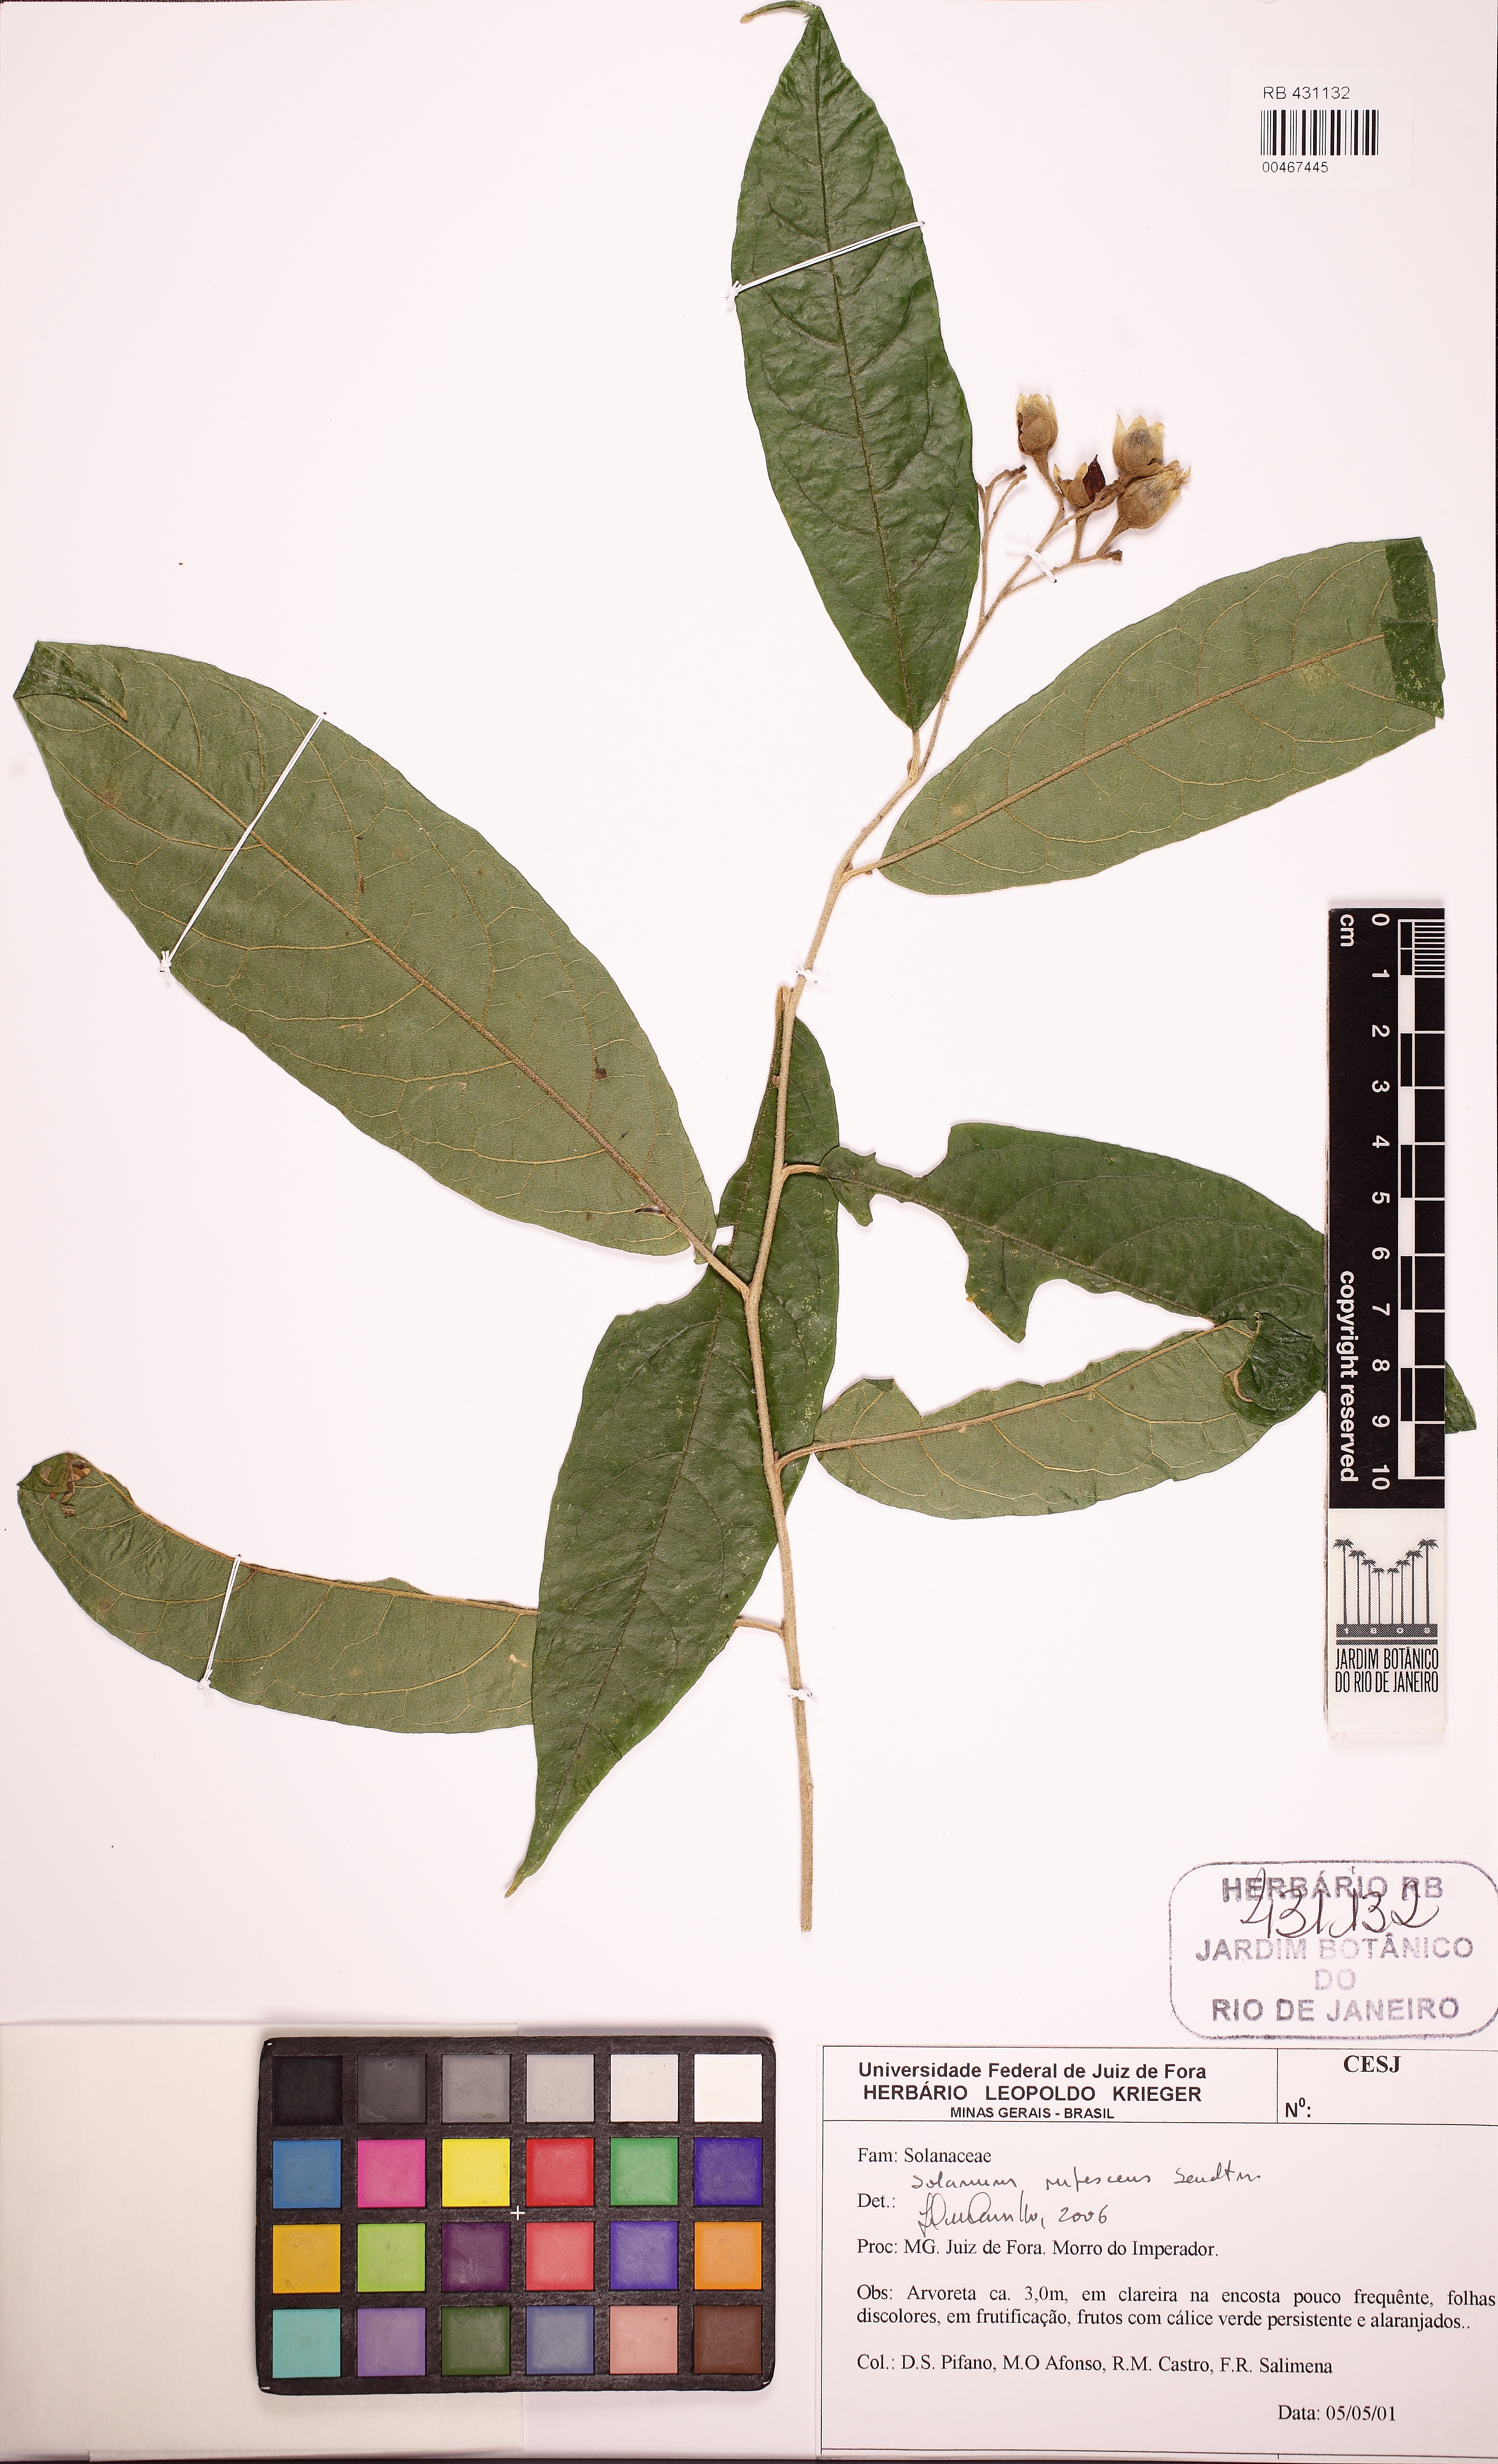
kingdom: Plantae
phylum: Tracheophyta
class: Magnoliopsida
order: Solanales
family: Solanaceae
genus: Solanum
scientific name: Solanum rufescens
